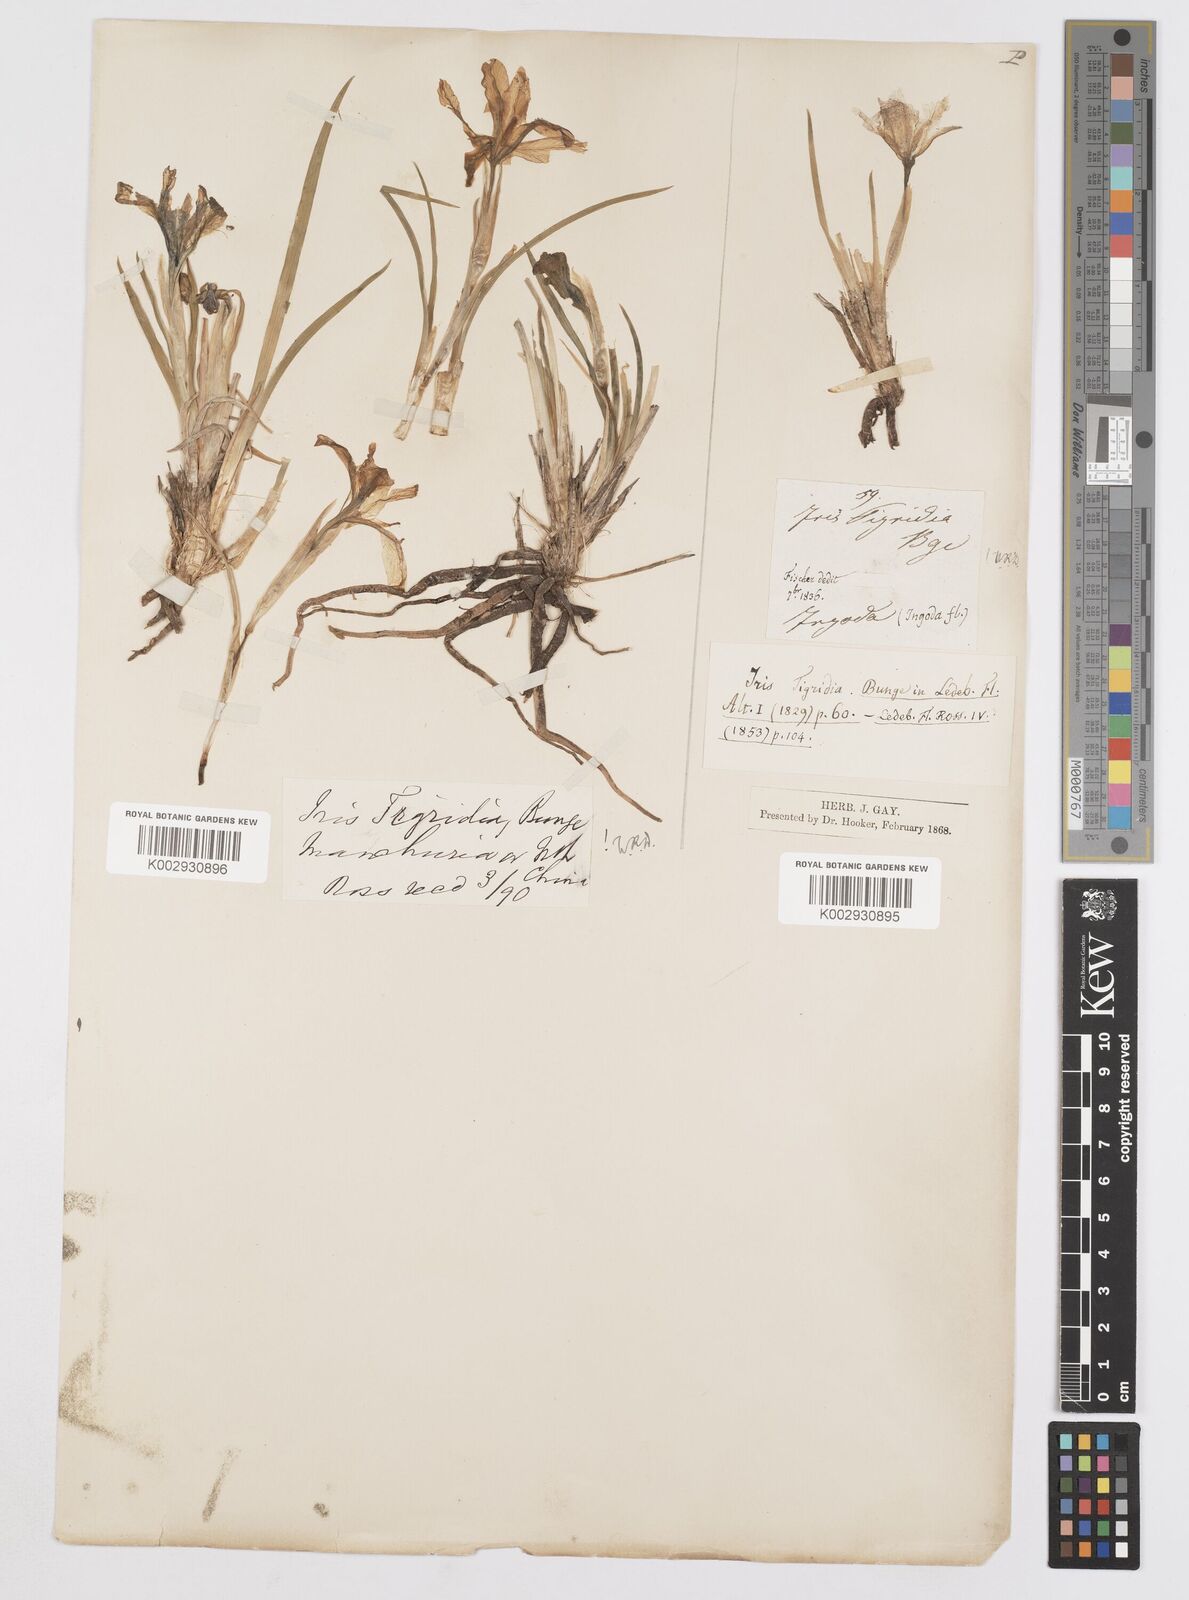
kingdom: Plantae
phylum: Tracheophyta
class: Liliopsida
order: Asparagales
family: Iridaceae
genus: Iris
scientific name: Iris tigridia
